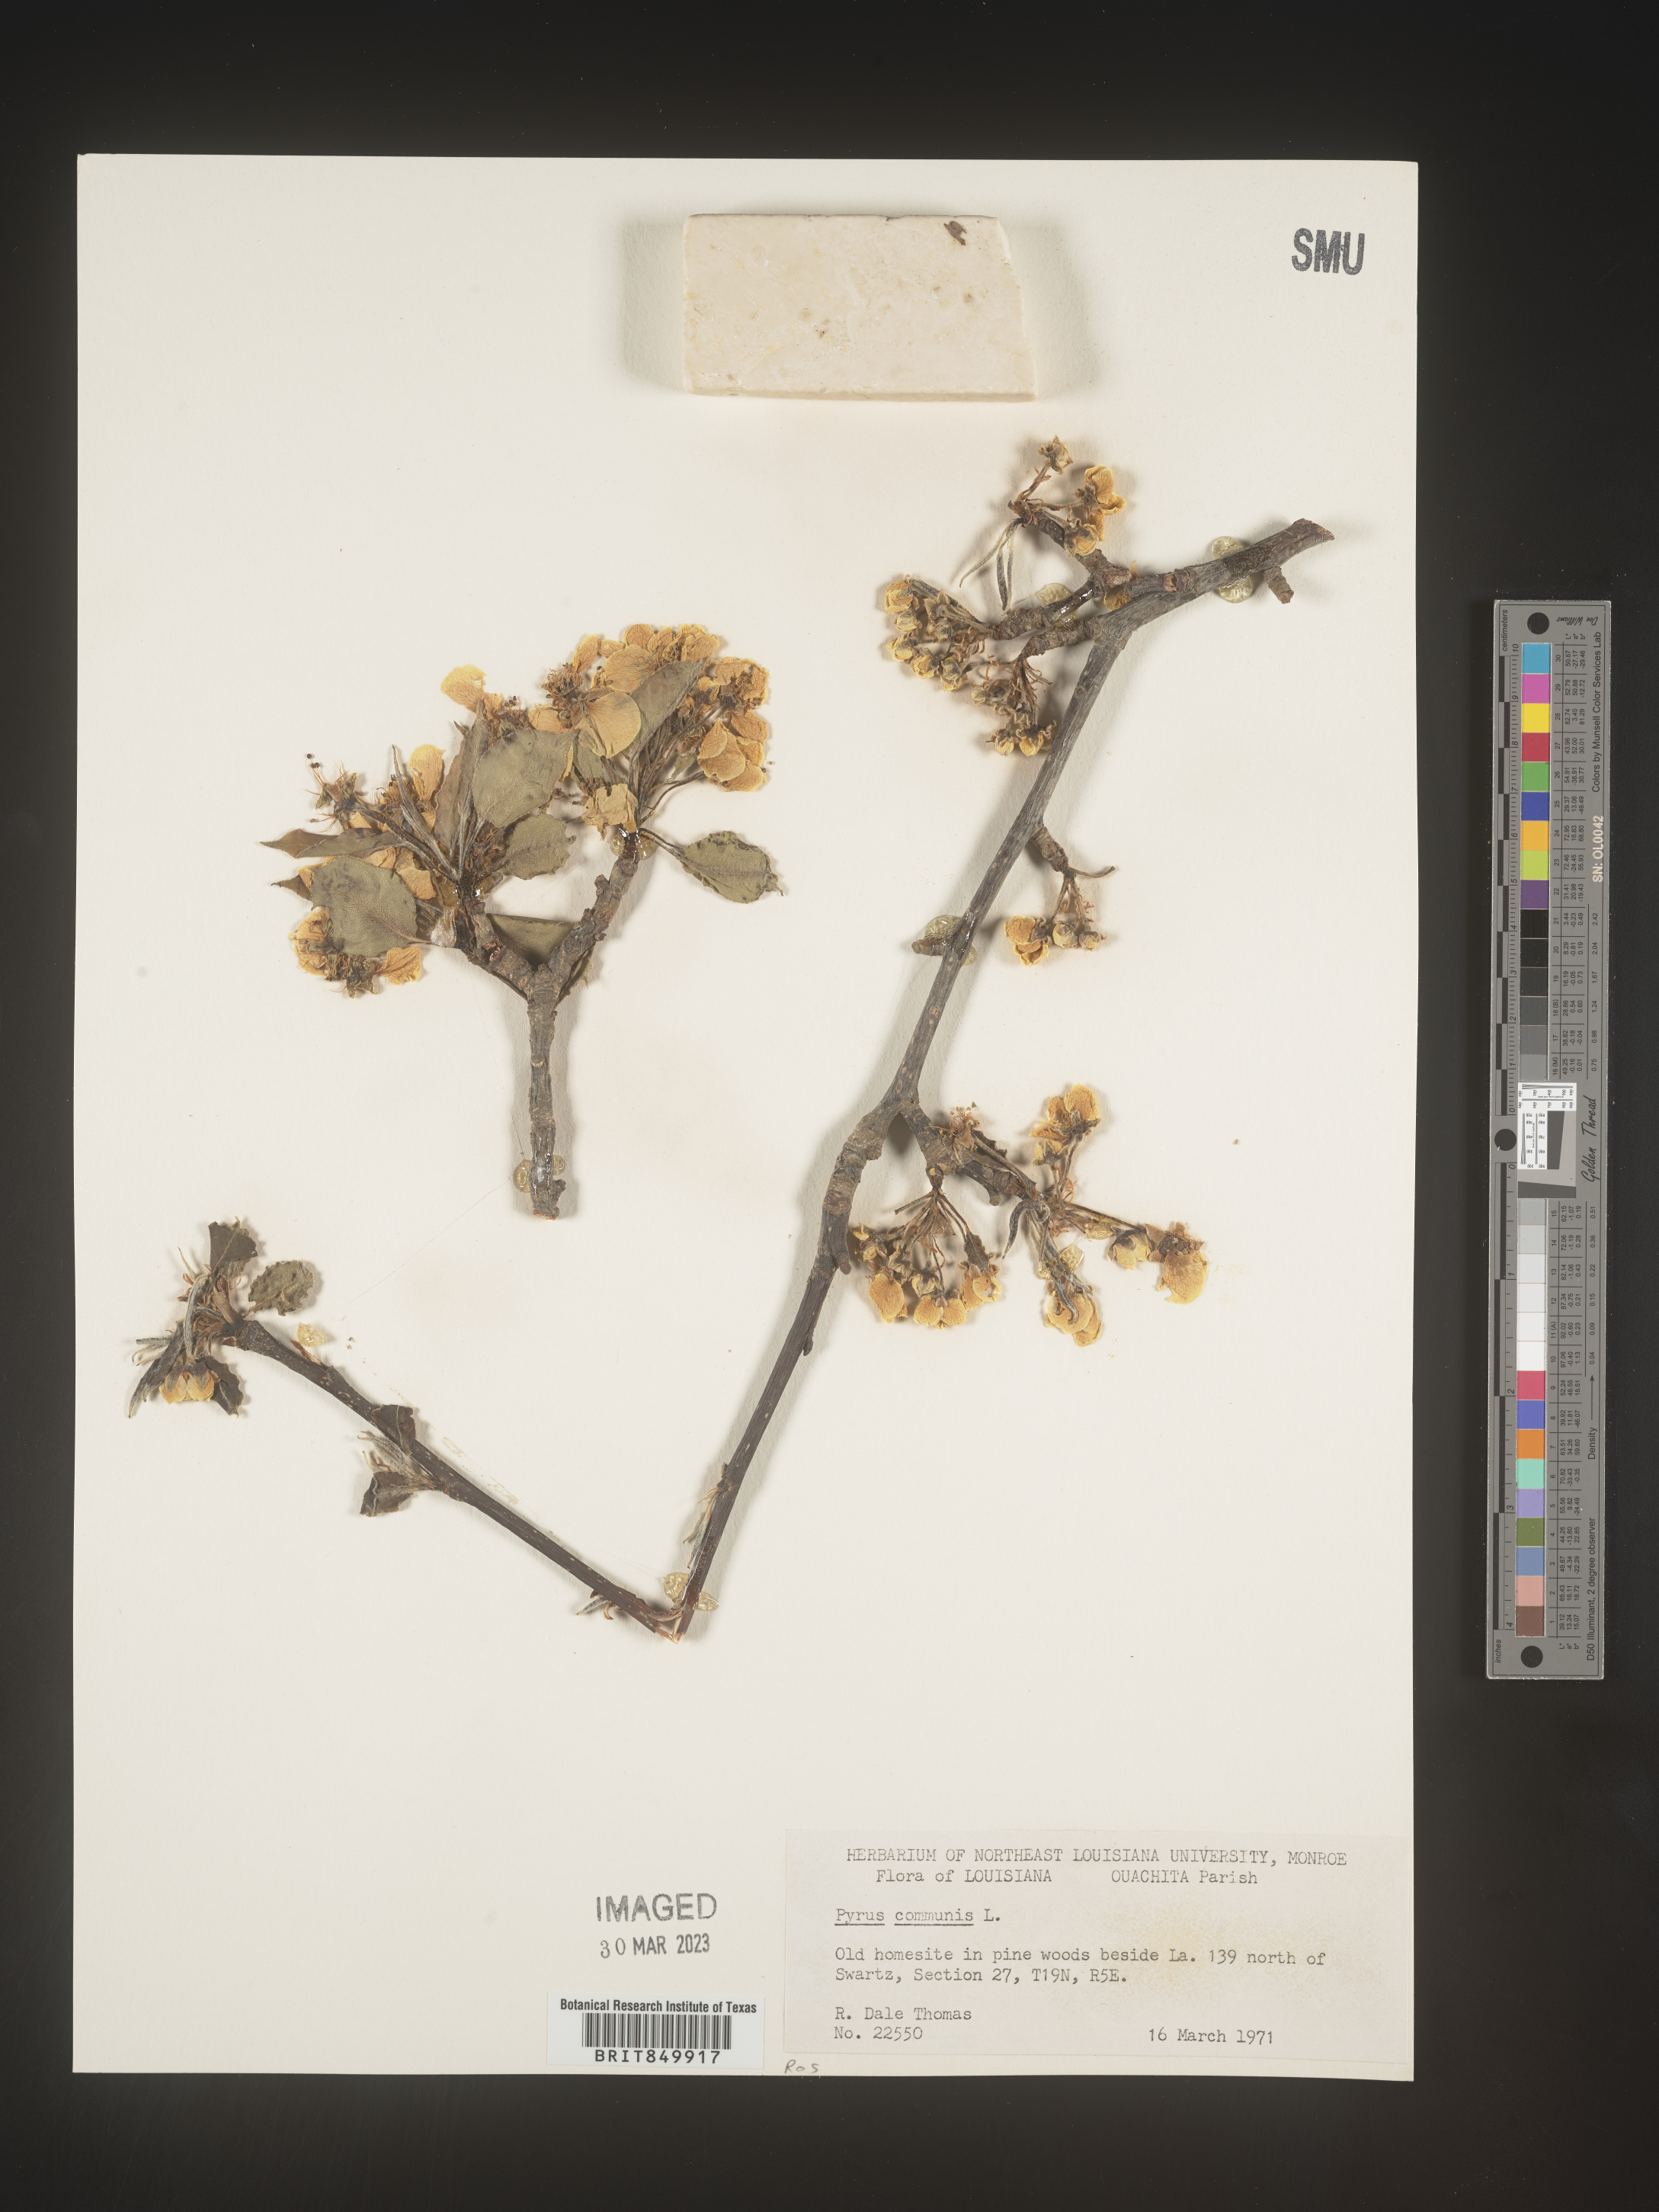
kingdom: Plantae
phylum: Tracheophyta
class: Magnoliopsida
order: Rosales
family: Rosaceae
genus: Pyrus
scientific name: Pyrus
